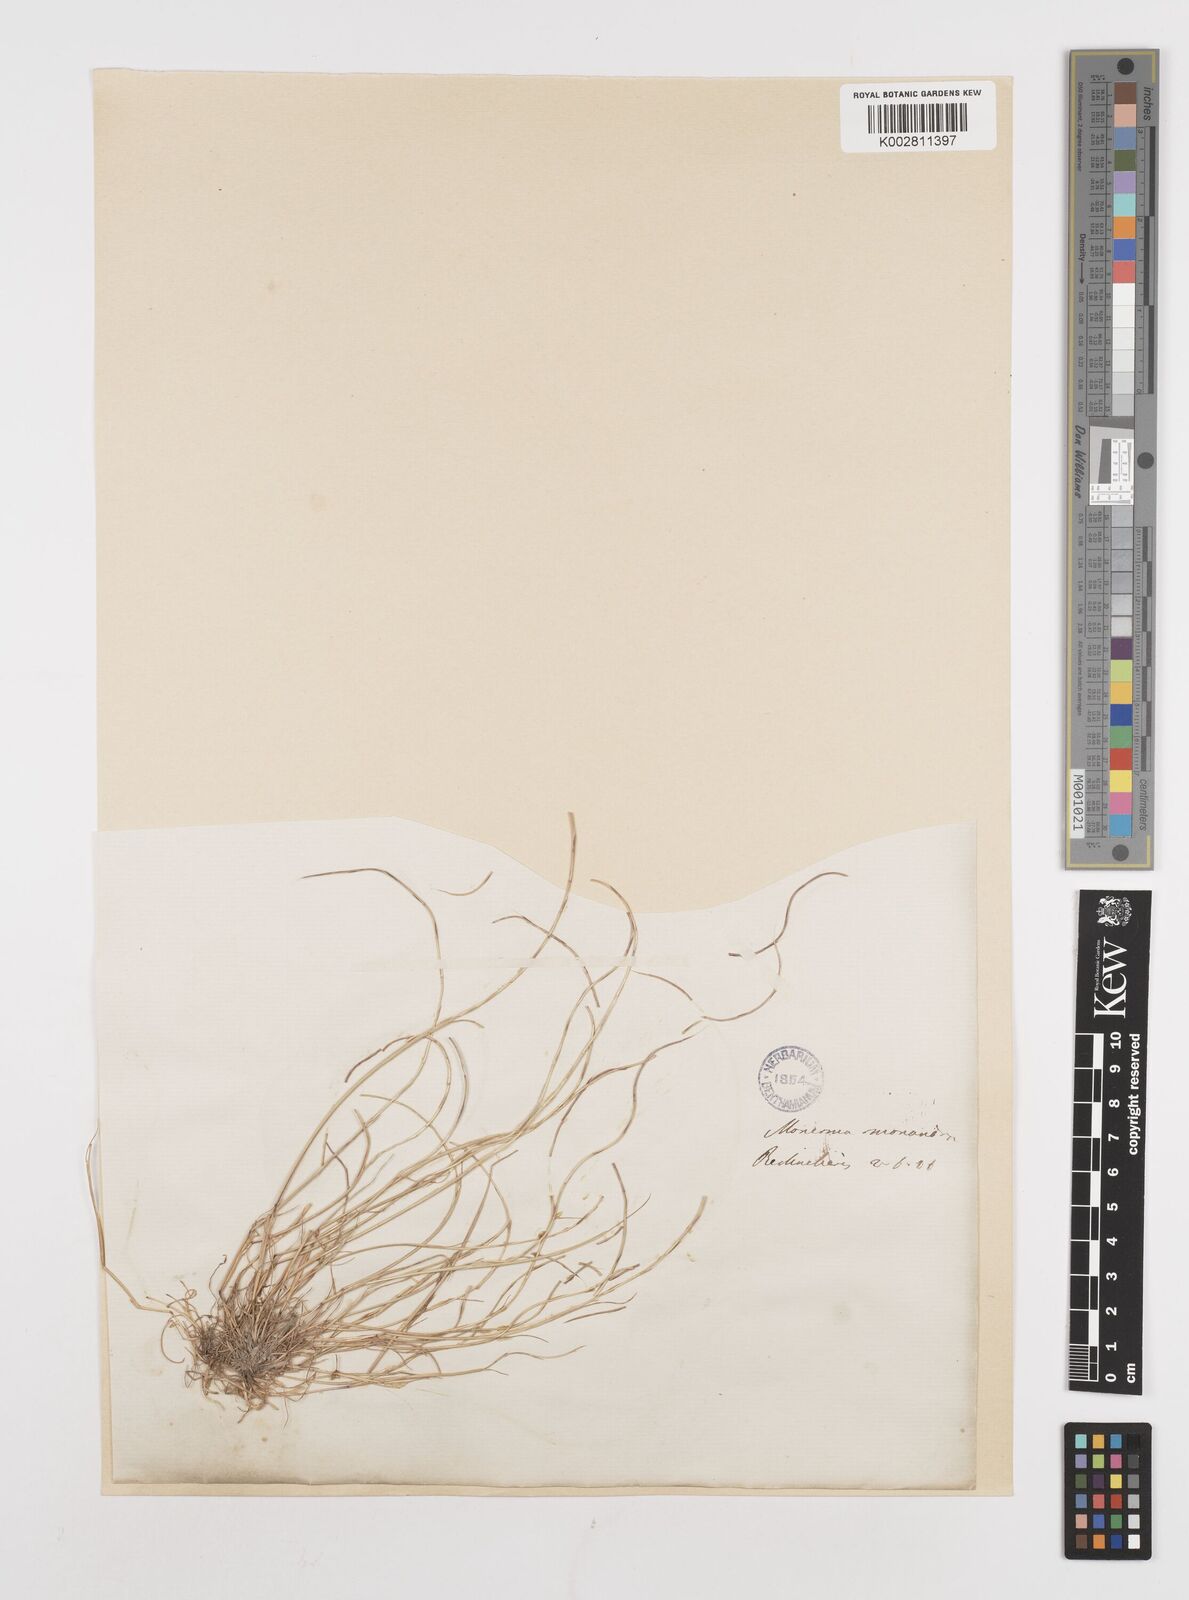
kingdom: Plantae
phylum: Tracheophyta
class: Liliopsida
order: Poales
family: Poaceae
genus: Festuca
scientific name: Festuca incurva
